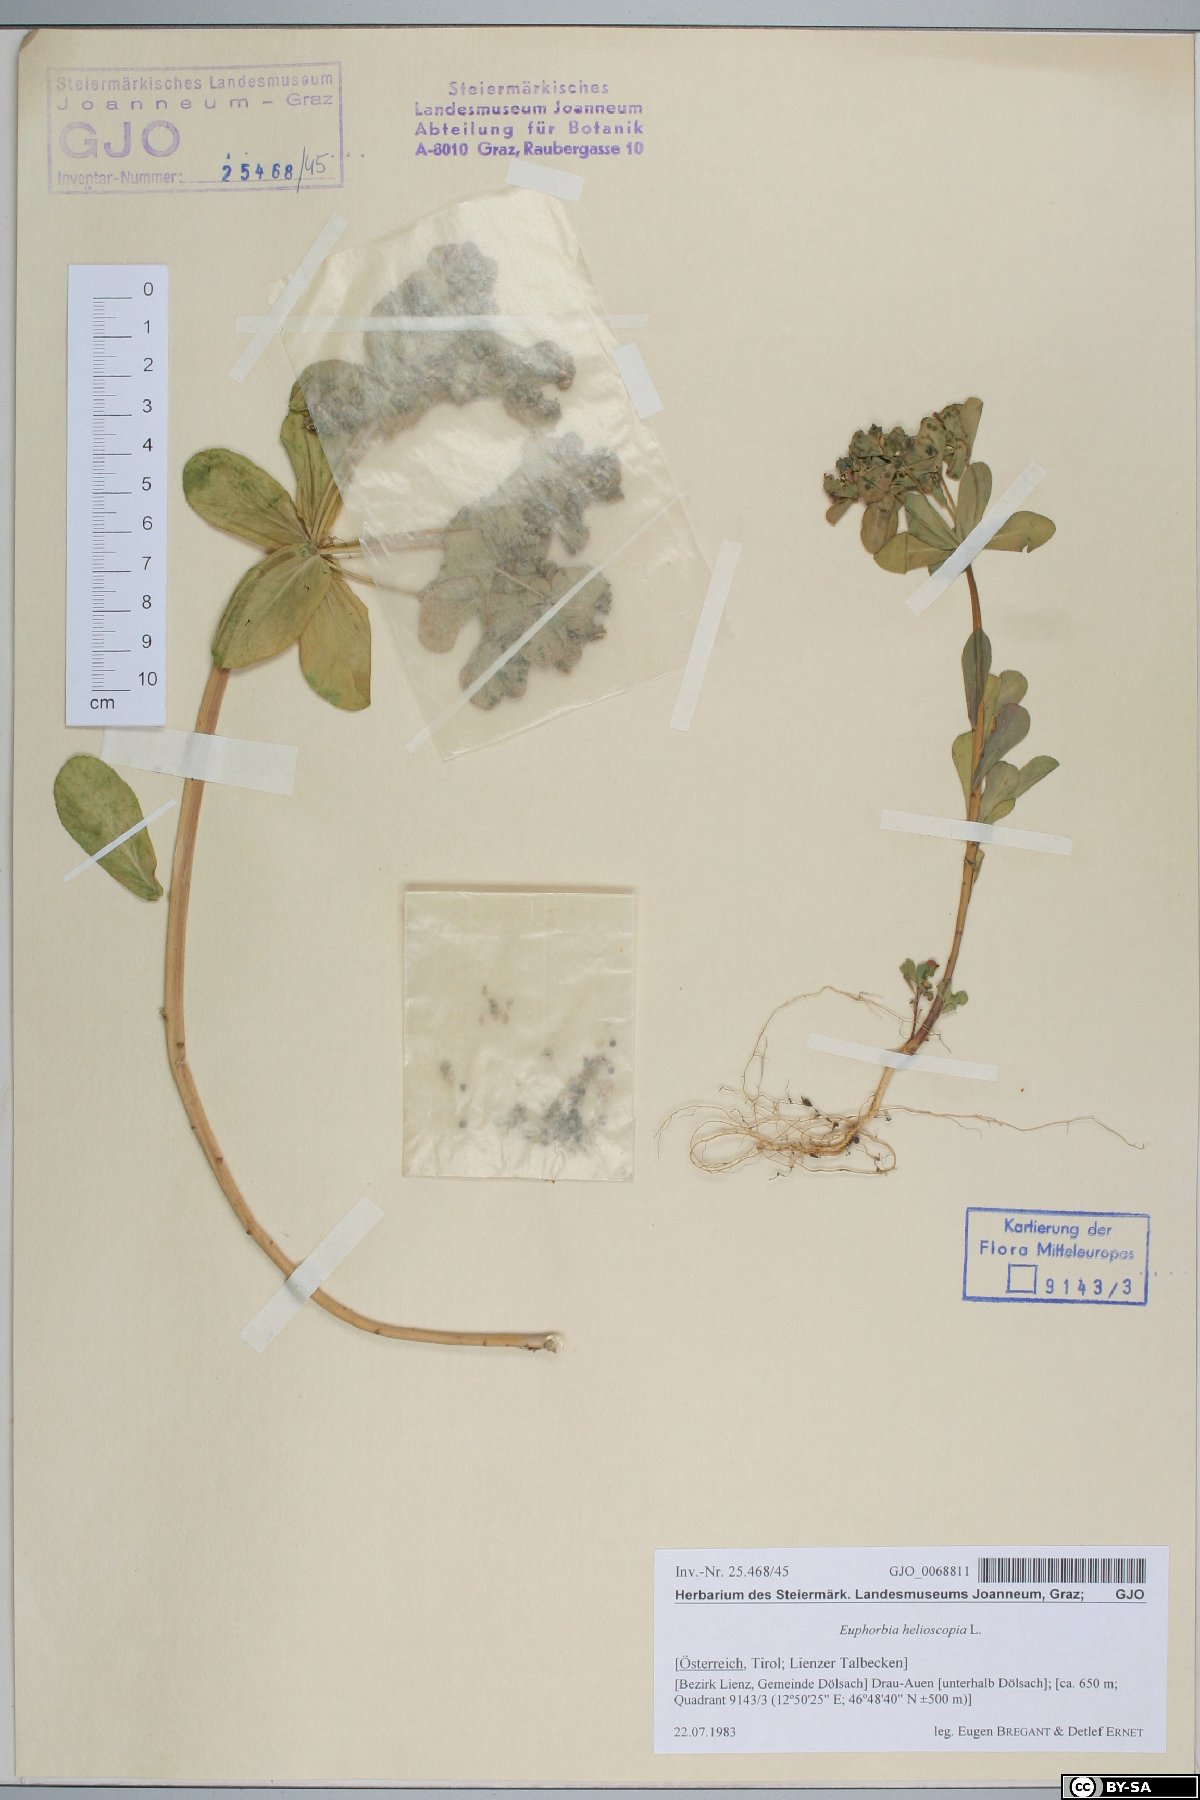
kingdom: Plantae
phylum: Tracheophyta
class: Magnoliopsida
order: Malpighiales
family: Euphorbiaceae
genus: Euphorbia
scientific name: Euphorbia helioscopia
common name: Sun spurge
